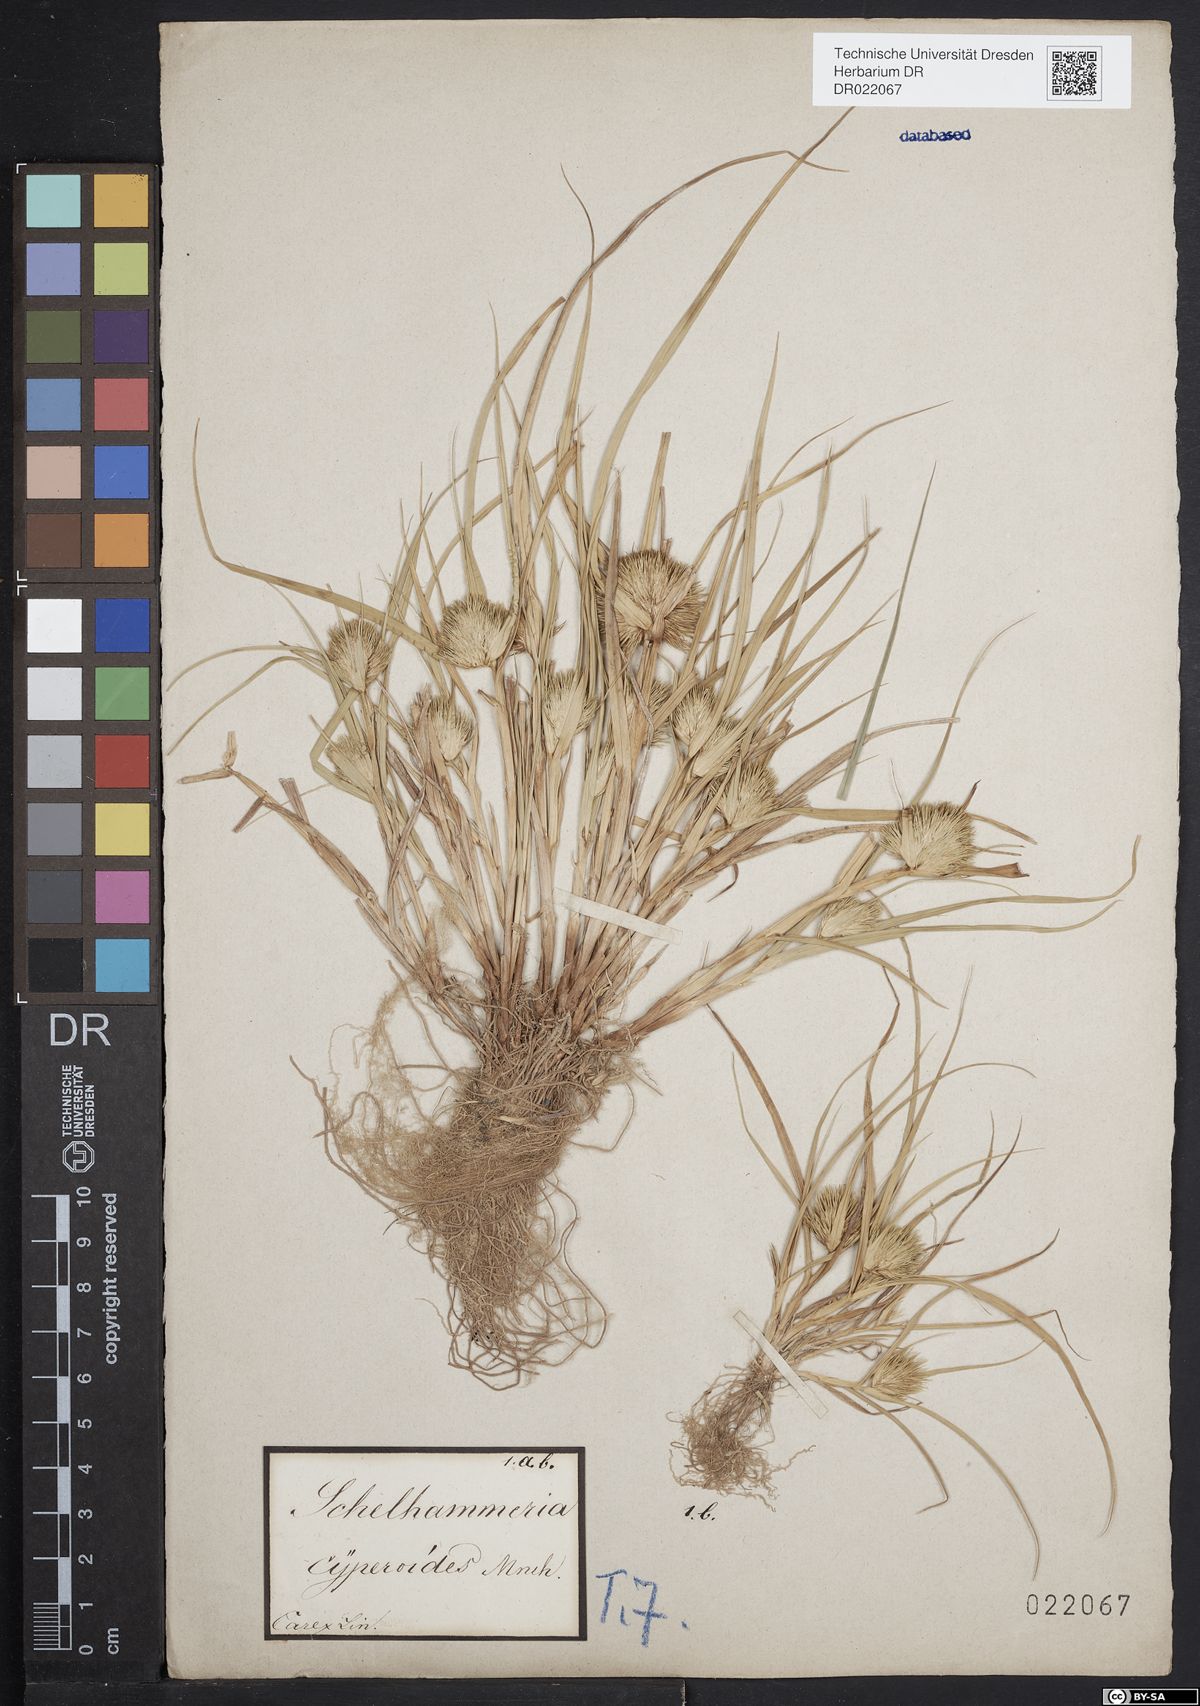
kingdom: Plantae
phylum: Tracheophyta
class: Liliopsida
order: Poales
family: Cyperaceae
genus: Carex
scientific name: Carex bohemica
